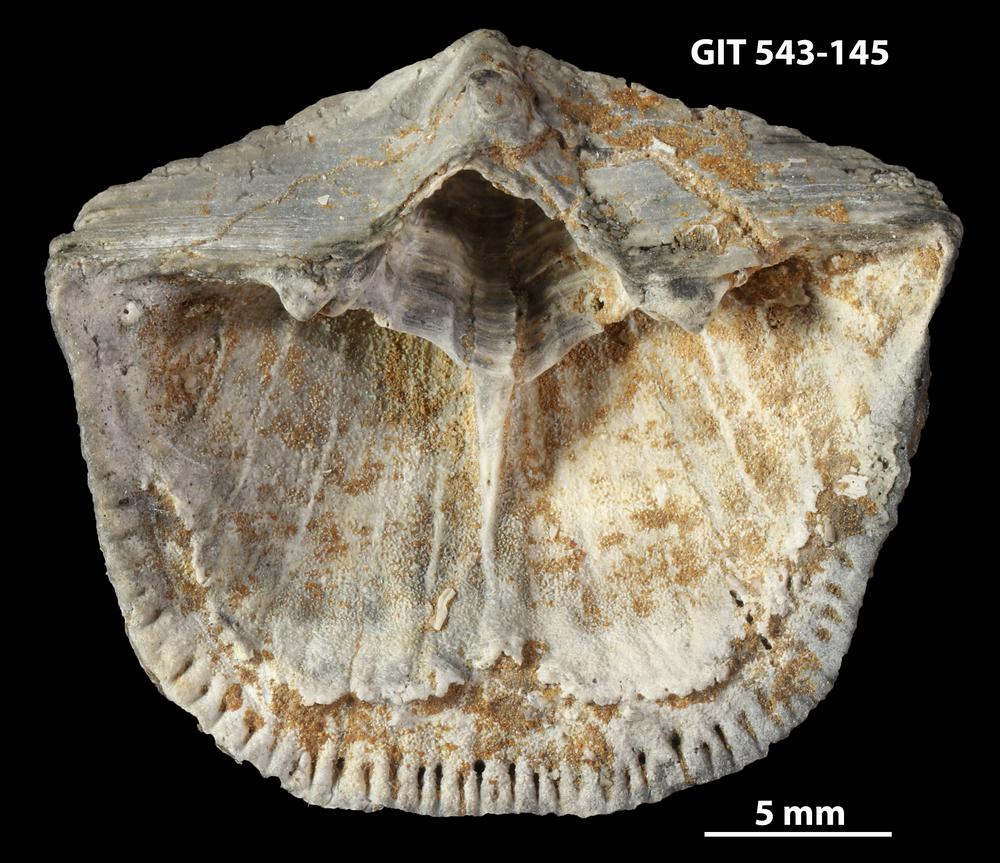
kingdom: Animalia
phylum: Brachiopoda
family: Gonambonitidae
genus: Estlandia
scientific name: Estlandia Orthisina marginata
